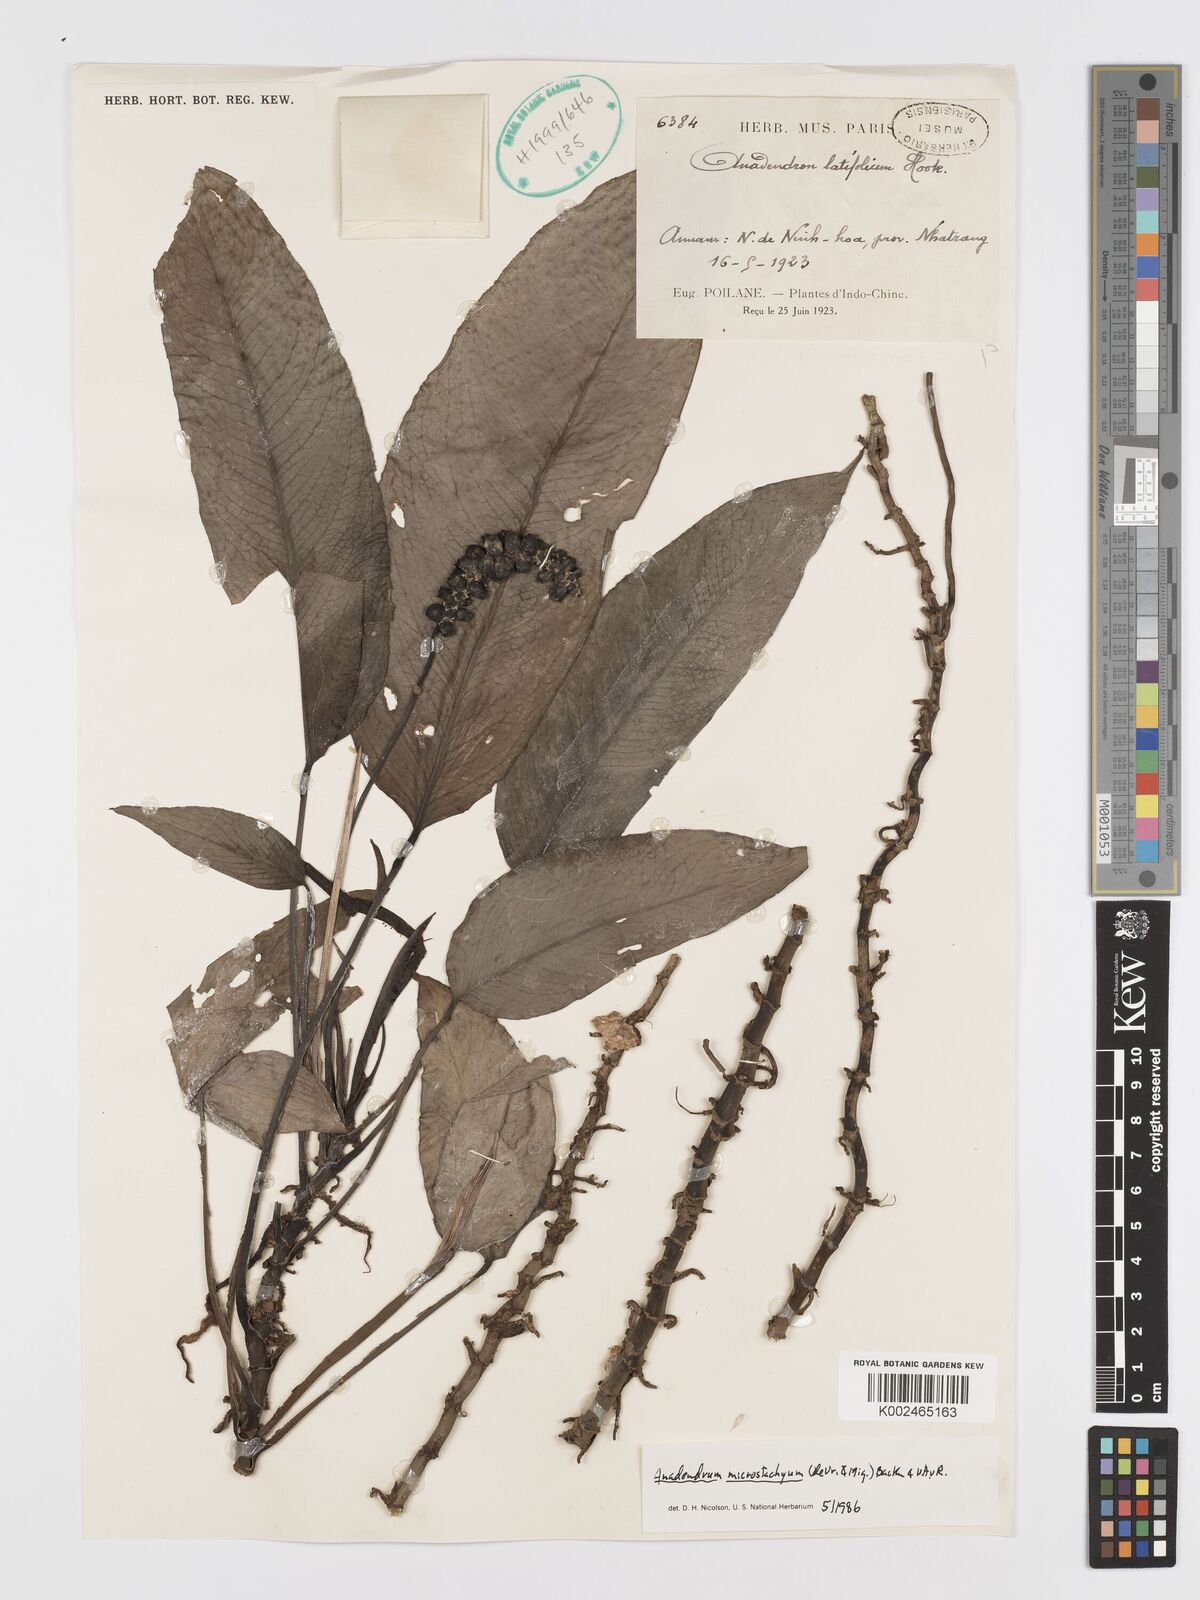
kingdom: Plantae
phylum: Tracheophyta
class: Liliopsida
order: Alismatales
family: Araceae
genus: Anadendrum
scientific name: Anadendrum microstachyum
